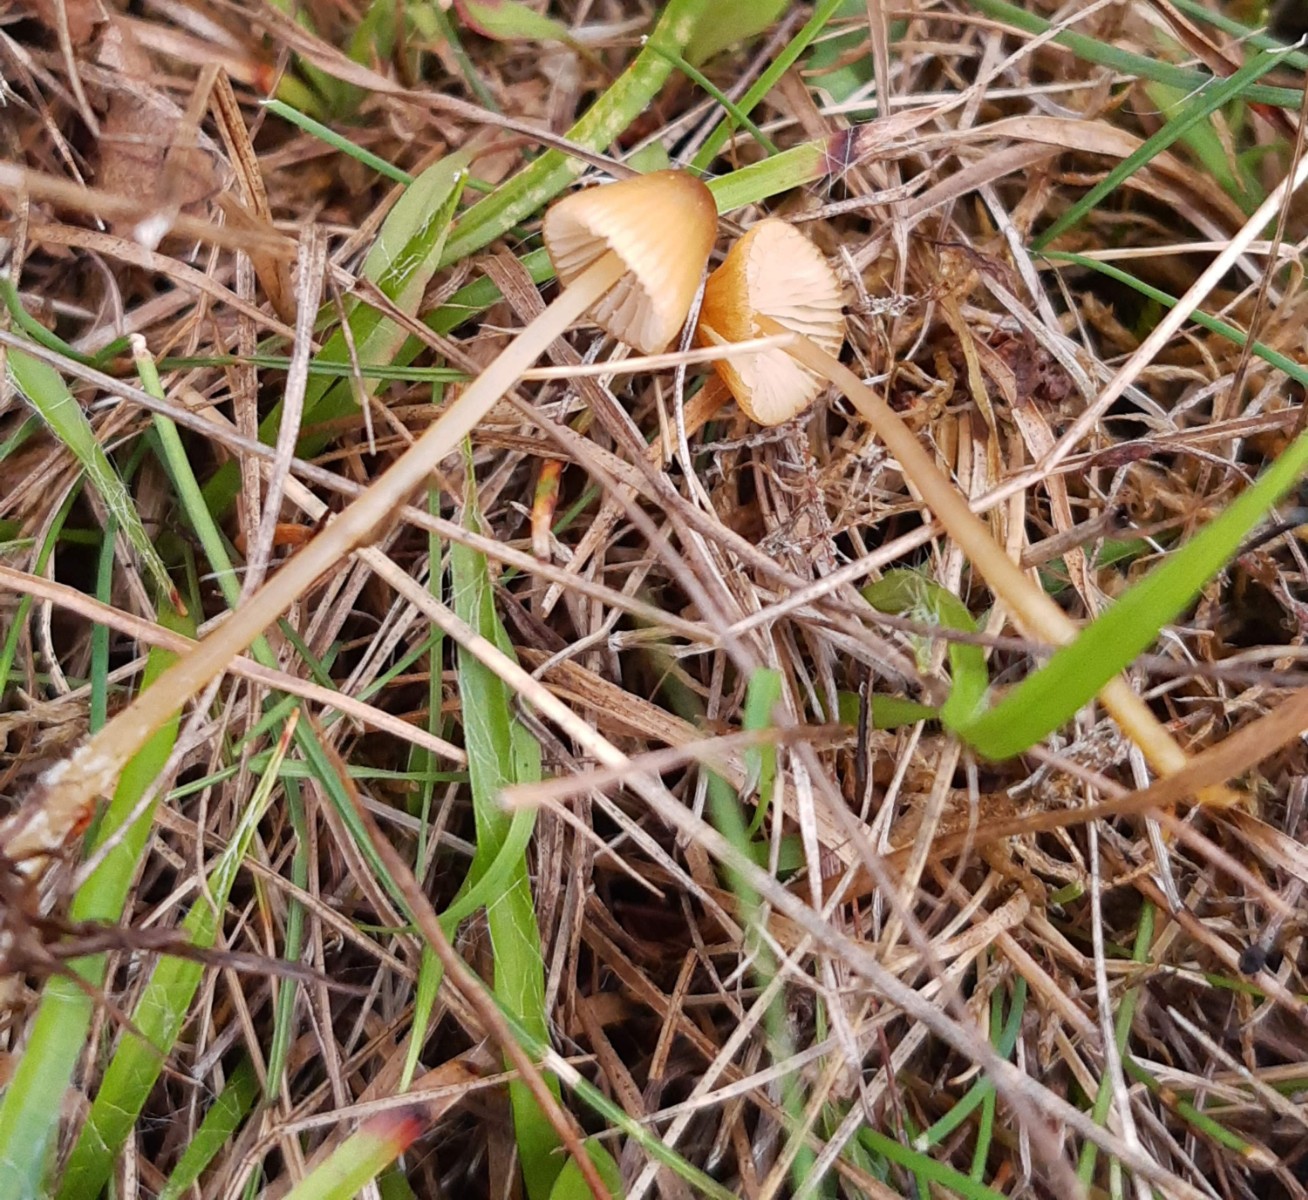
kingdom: Fungi
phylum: Basidiomycota
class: Agaricomycetes
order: Agaricales
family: Mycenaceae
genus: Mycena
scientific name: Mycena olivaceomarginata
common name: brunægget huesvamp
